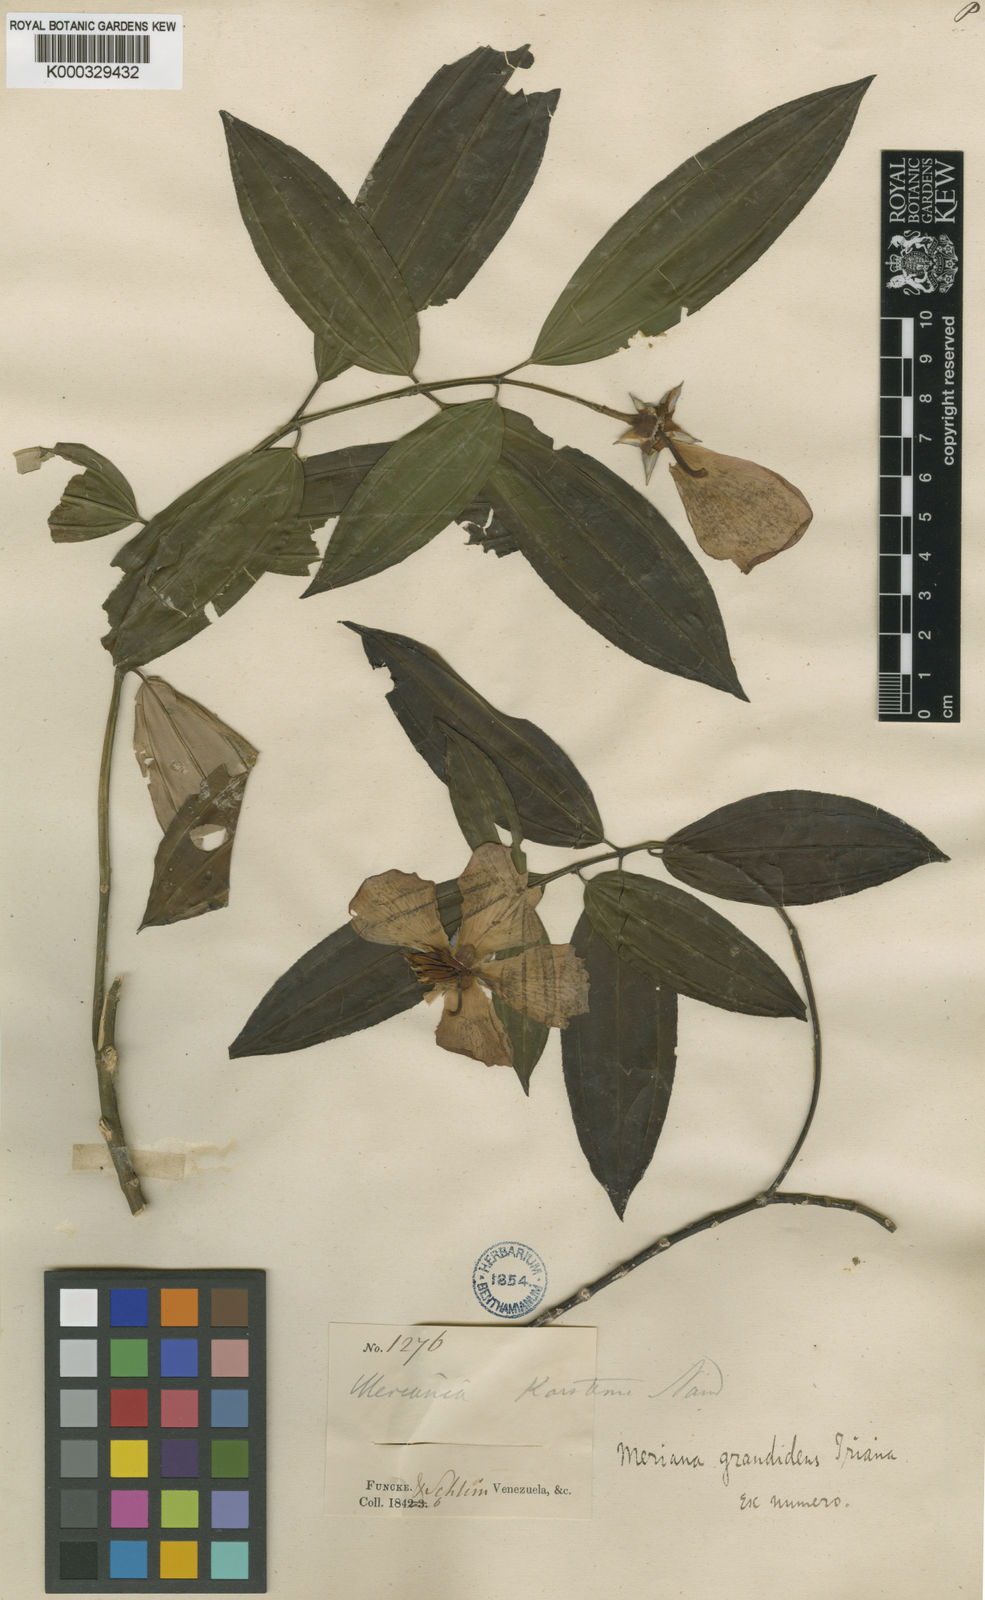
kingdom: Plantae
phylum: Tracheophyta
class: Magnoliopsida
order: Myrtales
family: Melastomataceae
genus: Meriania
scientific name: Meriania grandidens
